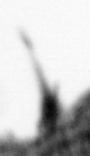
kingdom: Animalia
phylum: Arthropoda
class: Copepoda
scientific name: Copepoda
